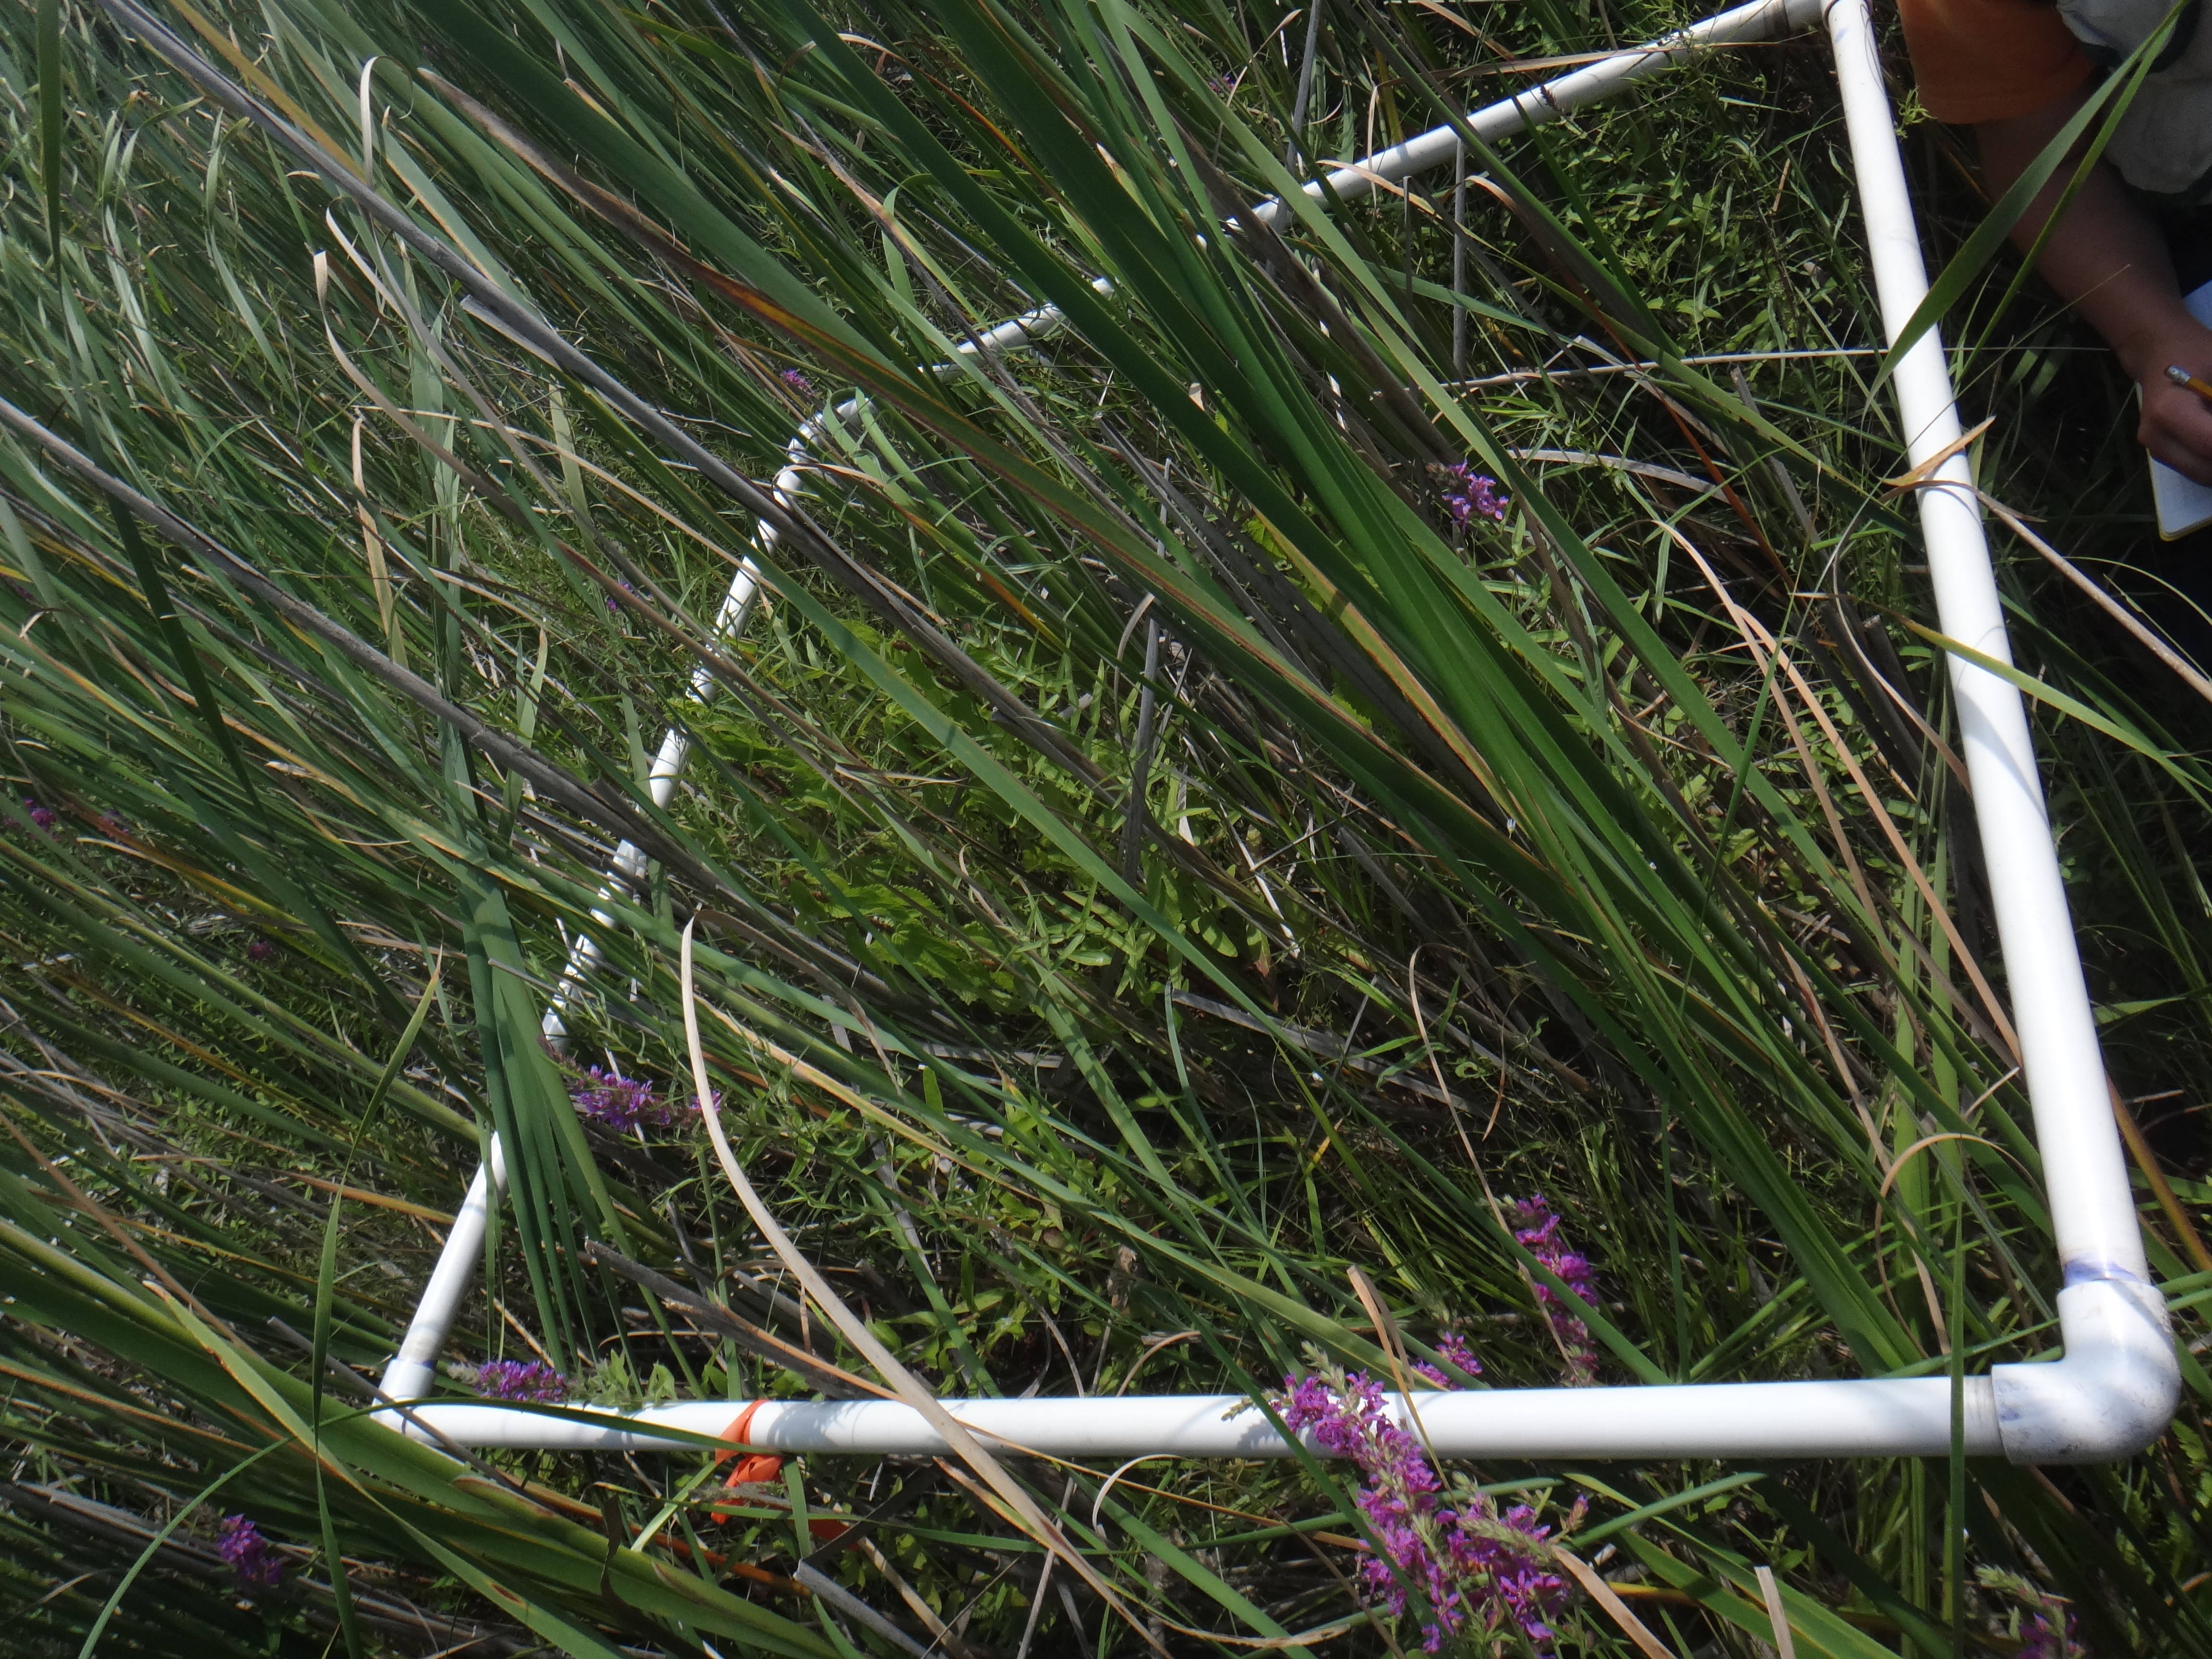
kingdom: Plantae
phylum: Tracheophyta
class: Liliopsida
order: Poales
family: Cyperaceae
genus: Carex
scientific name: Carex lasiocarpa
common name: Slender sedge
